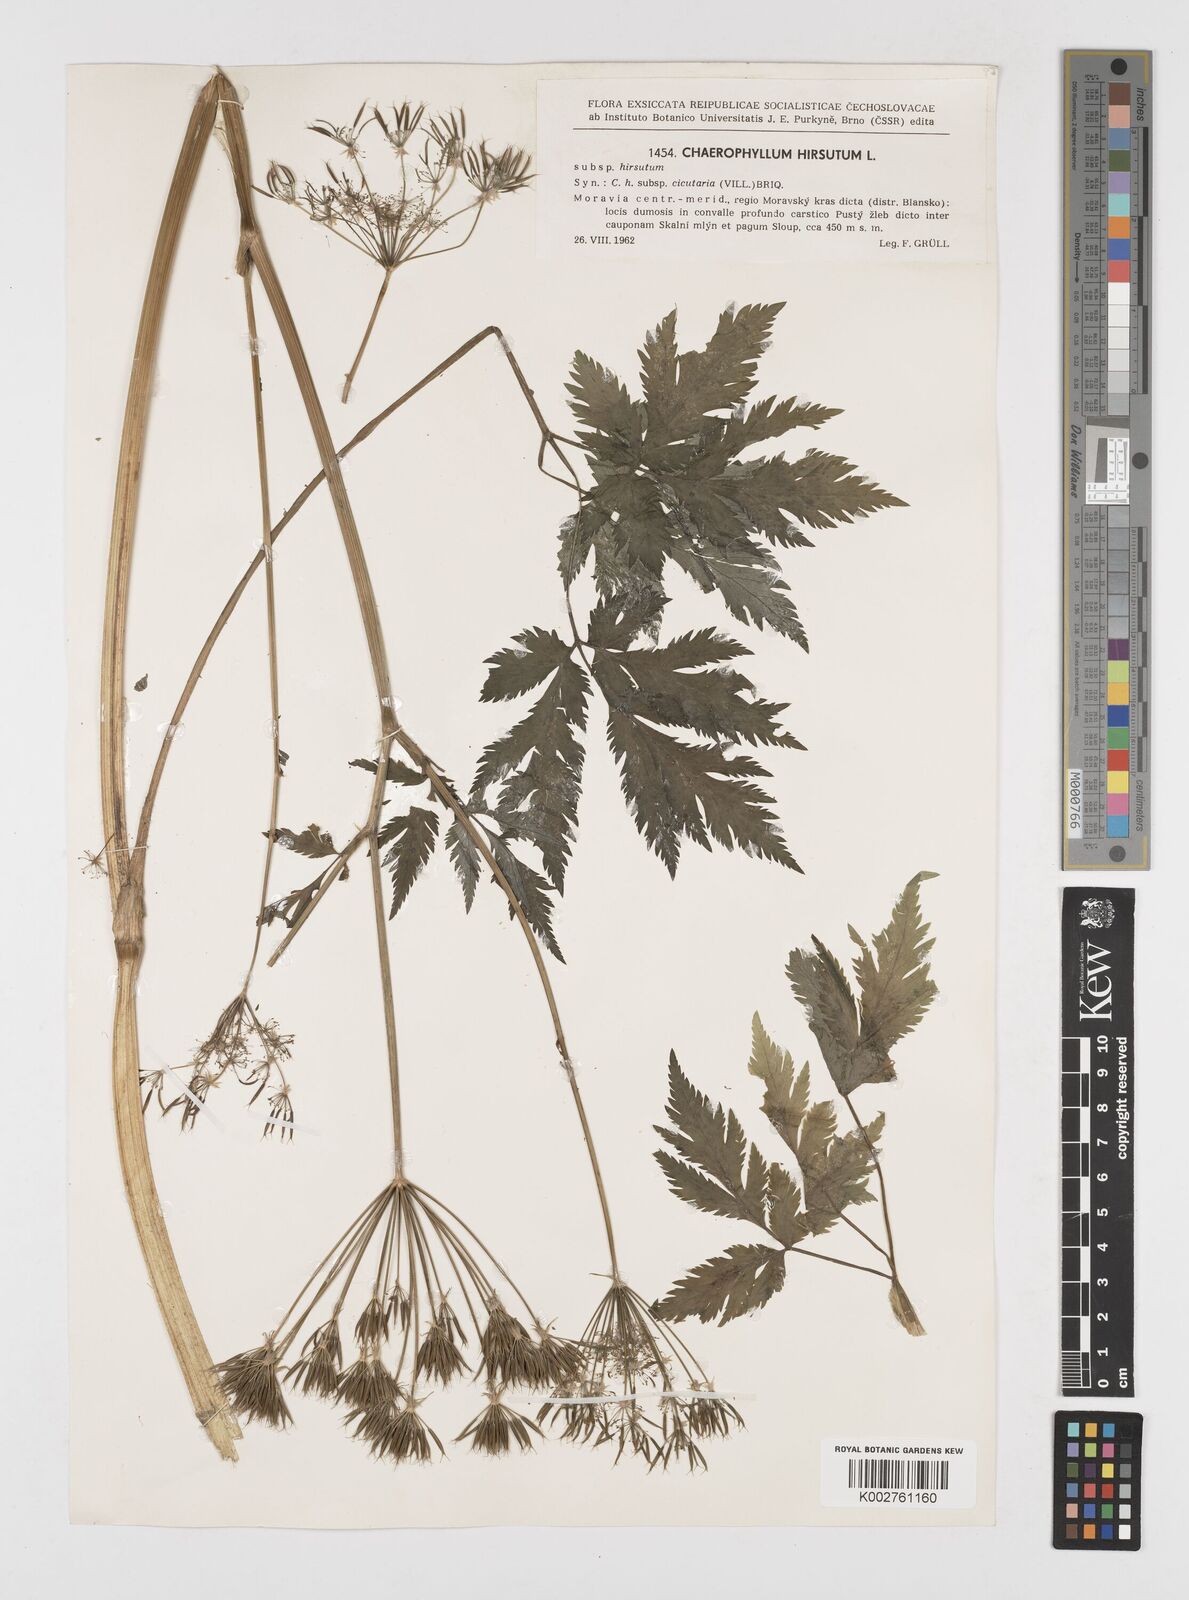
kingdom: Plantae
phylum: Tracheophyta
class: Magnoliopsida
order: Apiales
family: Apiaceae
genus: Chaerophyllum
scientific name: Chaerophyllum hirsutum
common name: Hairy chervil
